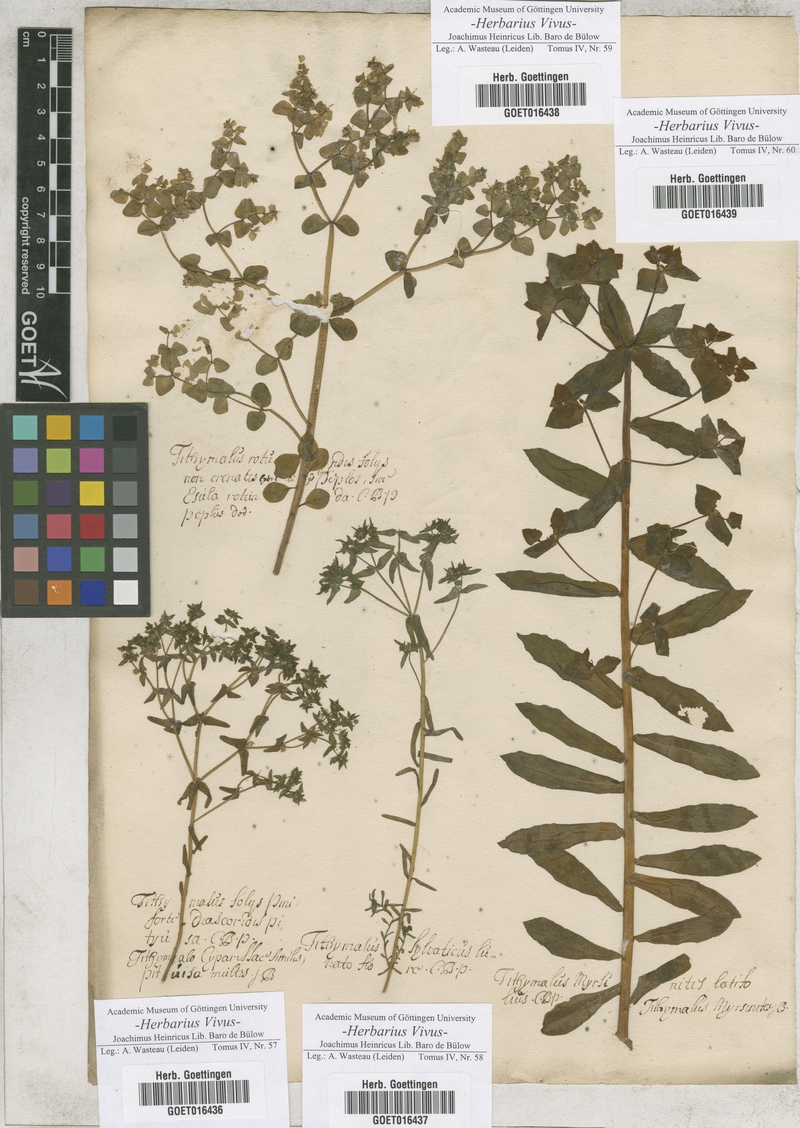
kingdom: Plantae
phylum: Tracheophyta
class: Magnoliopsida
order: Malpighiales
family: Euphorbiaceae
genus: Euphorbia
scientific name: Euphorbia characias
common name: Mediterranean spurge
